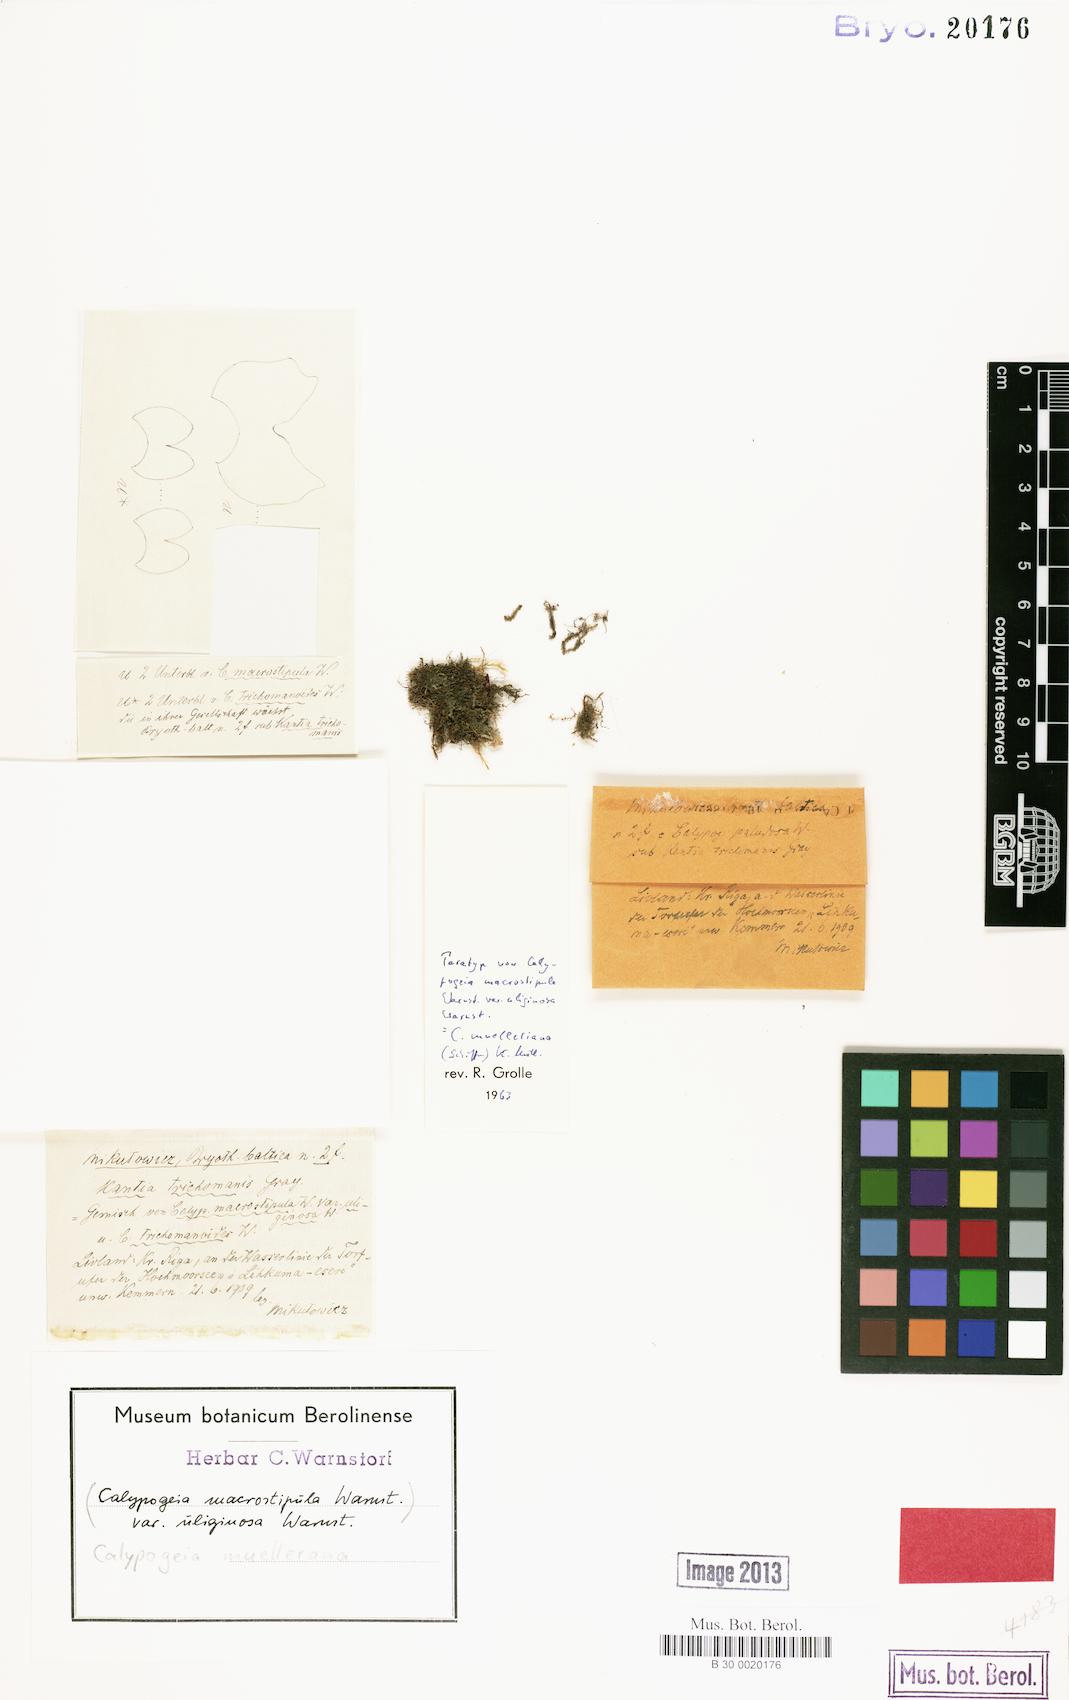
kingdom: Plantae
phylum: Marchantiophyta
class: Jungermanniopsida
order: Jungermanniales
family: Calypogeiaceae
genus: Calypogeia
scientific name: Calypogeia muelleriana
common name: Mueller s pouchwort
